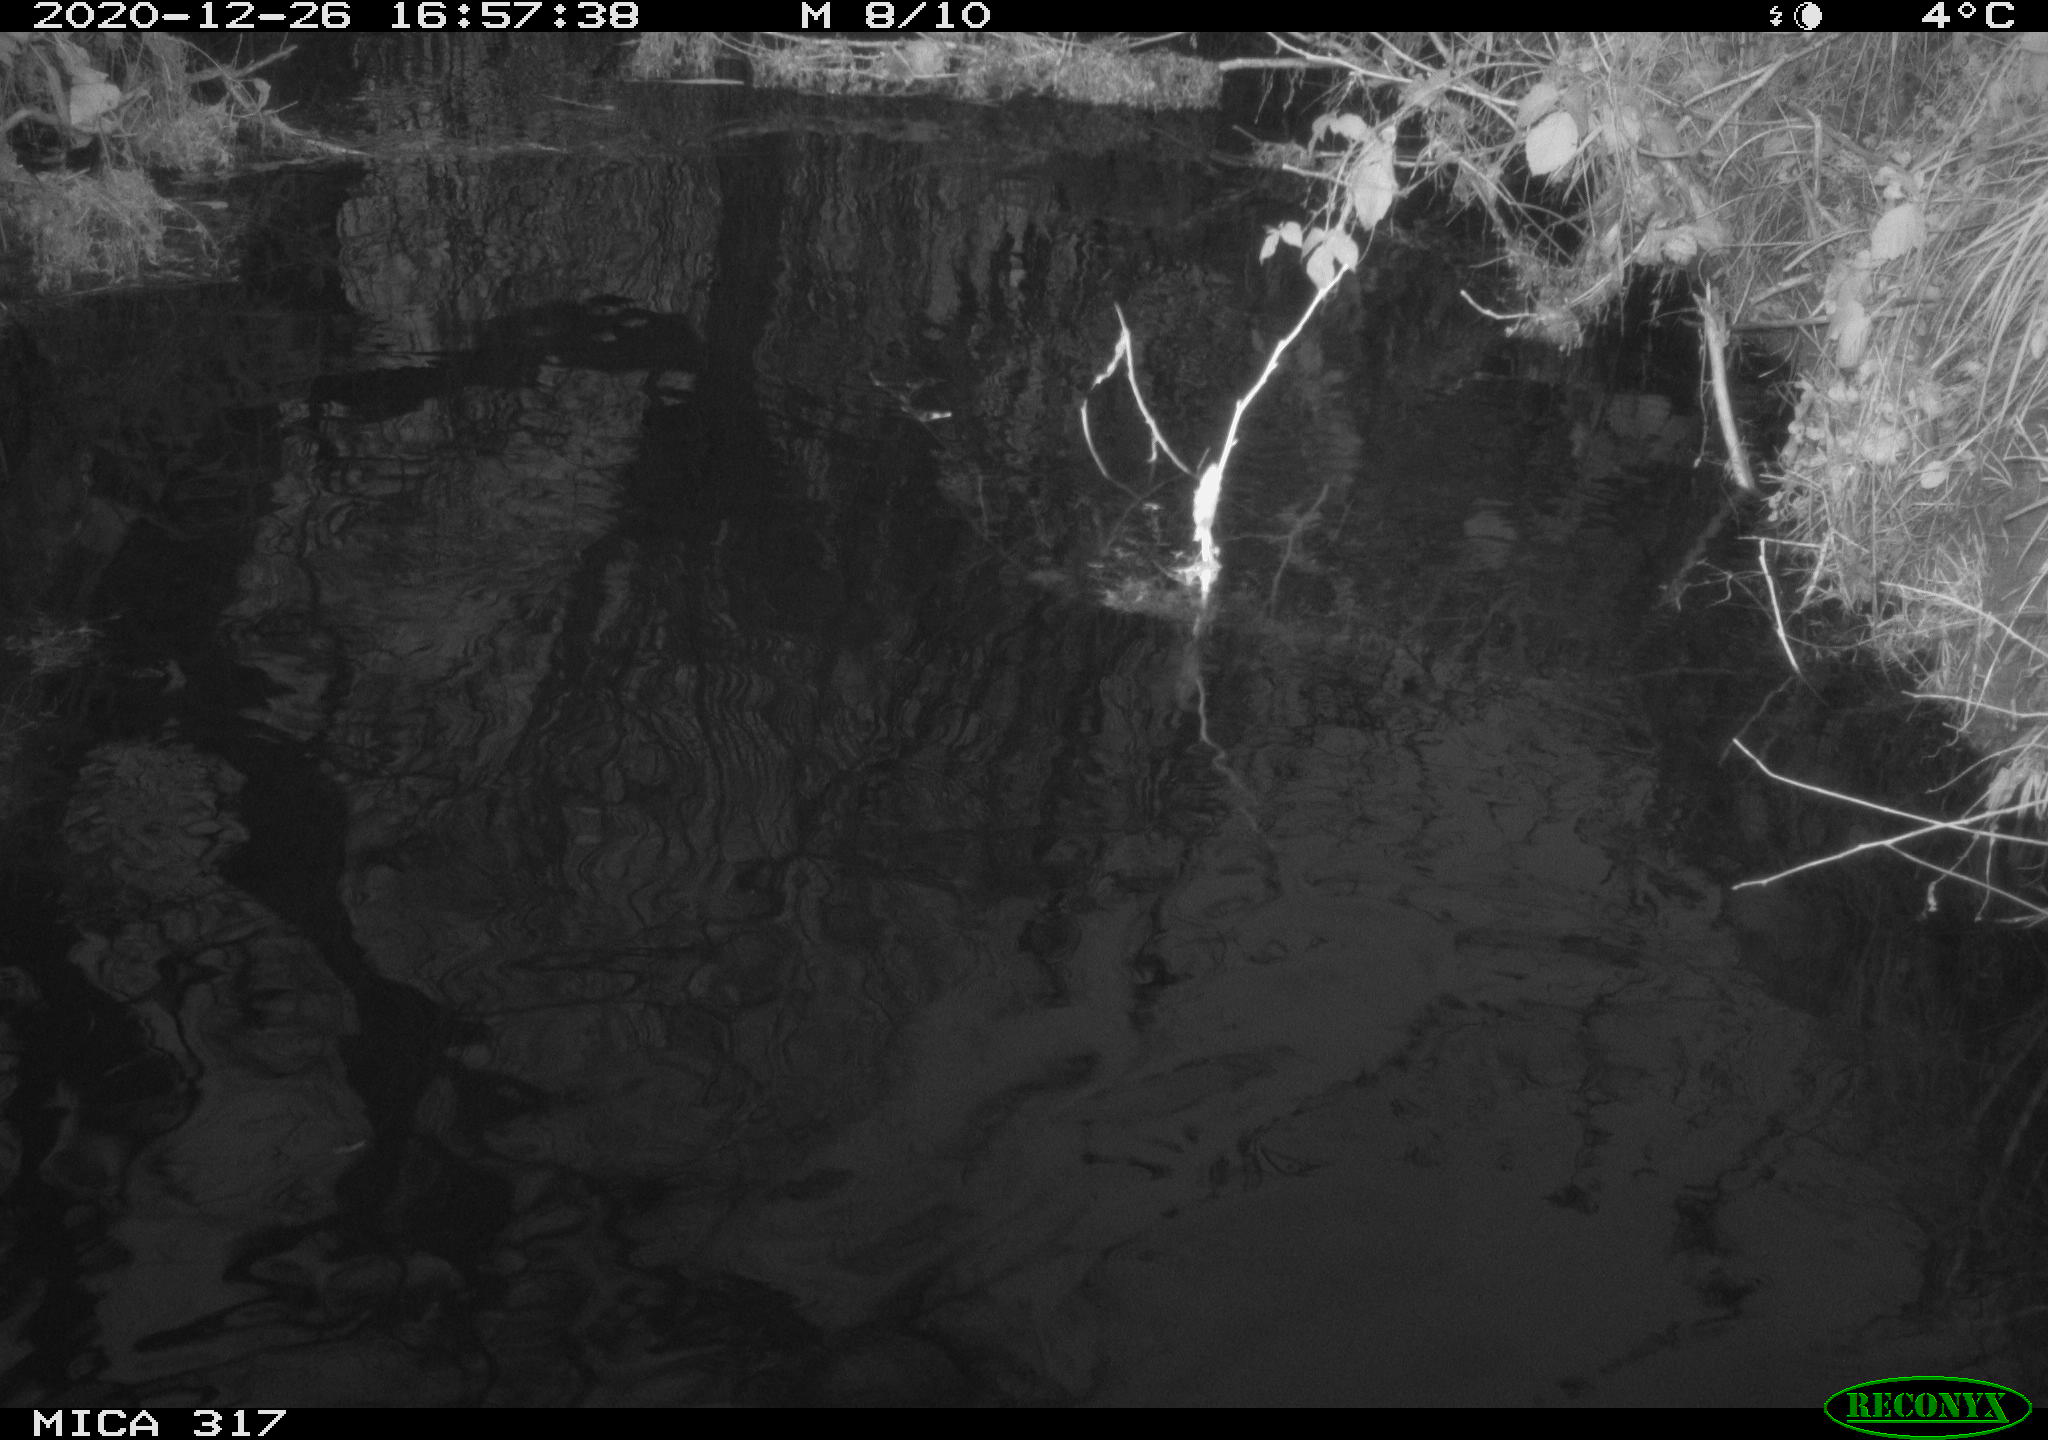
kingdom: Animalia
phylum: Chordata
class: Aves
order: Gruiformes
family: Rallidae
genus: Fulica
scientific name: Fulica atra
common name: Eurasian coot
